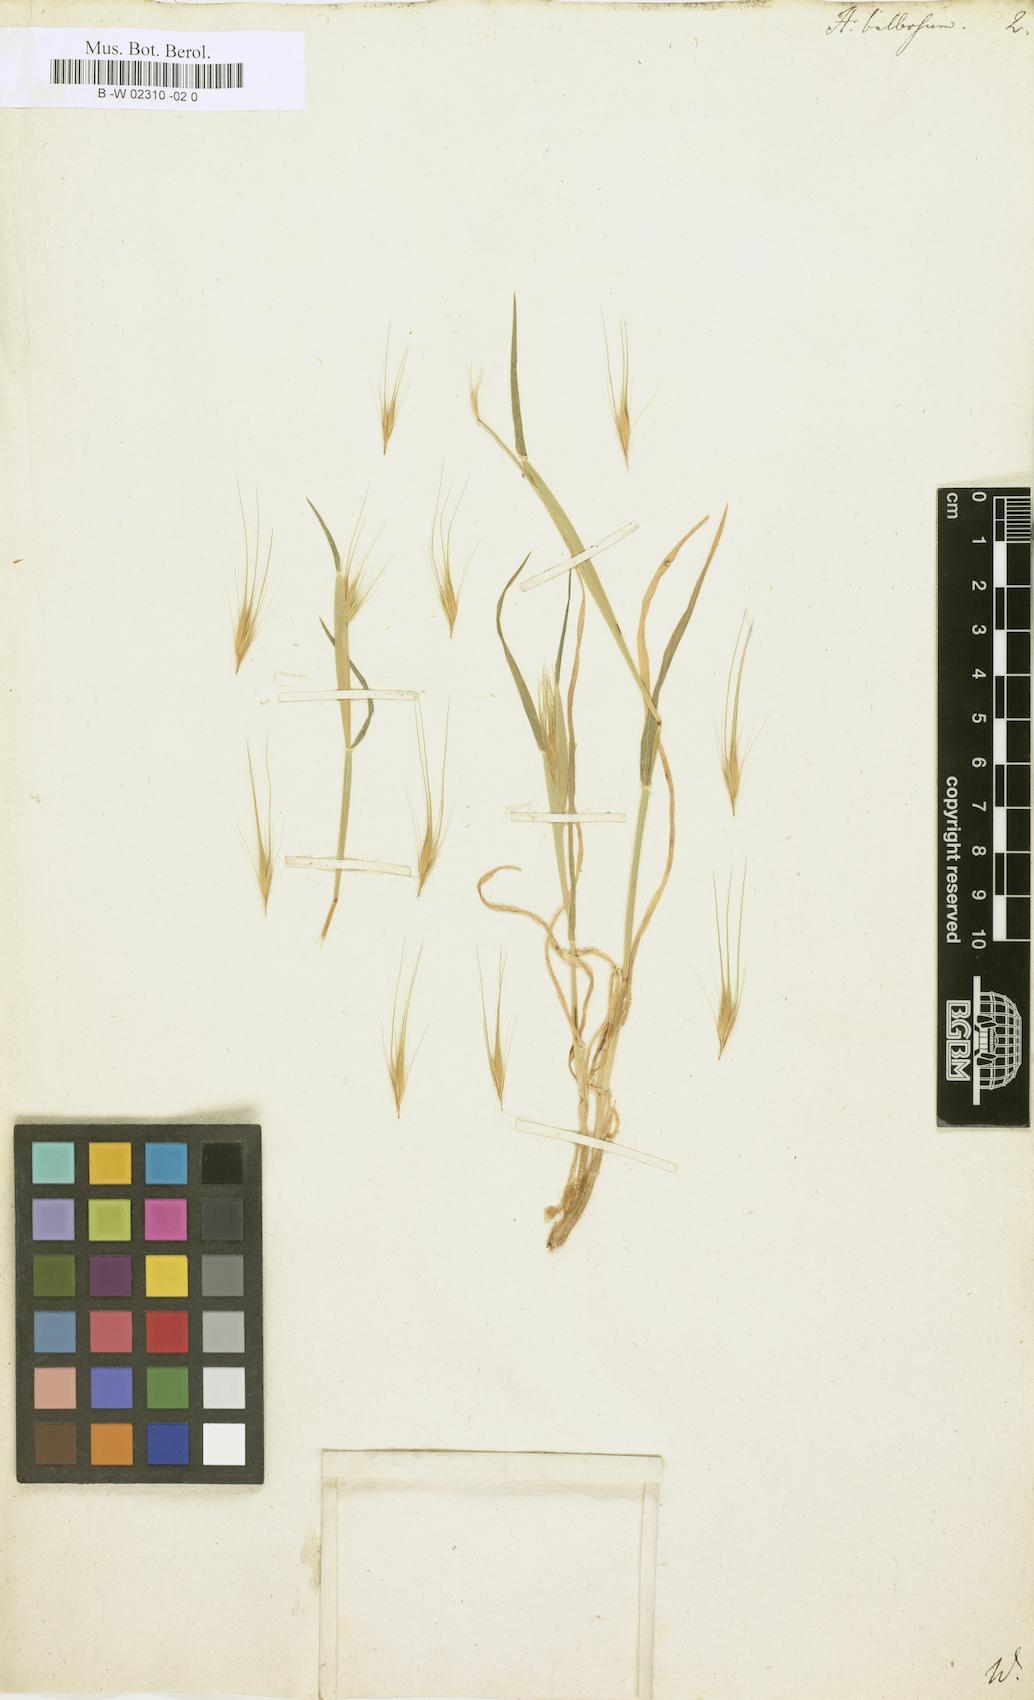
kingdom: Plantae
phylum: Tracheophyta
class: Liliopsida
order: Poales
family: Poaceae
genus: Hordeum
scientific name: Hordeum bulbosum
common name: Bulbous barley
